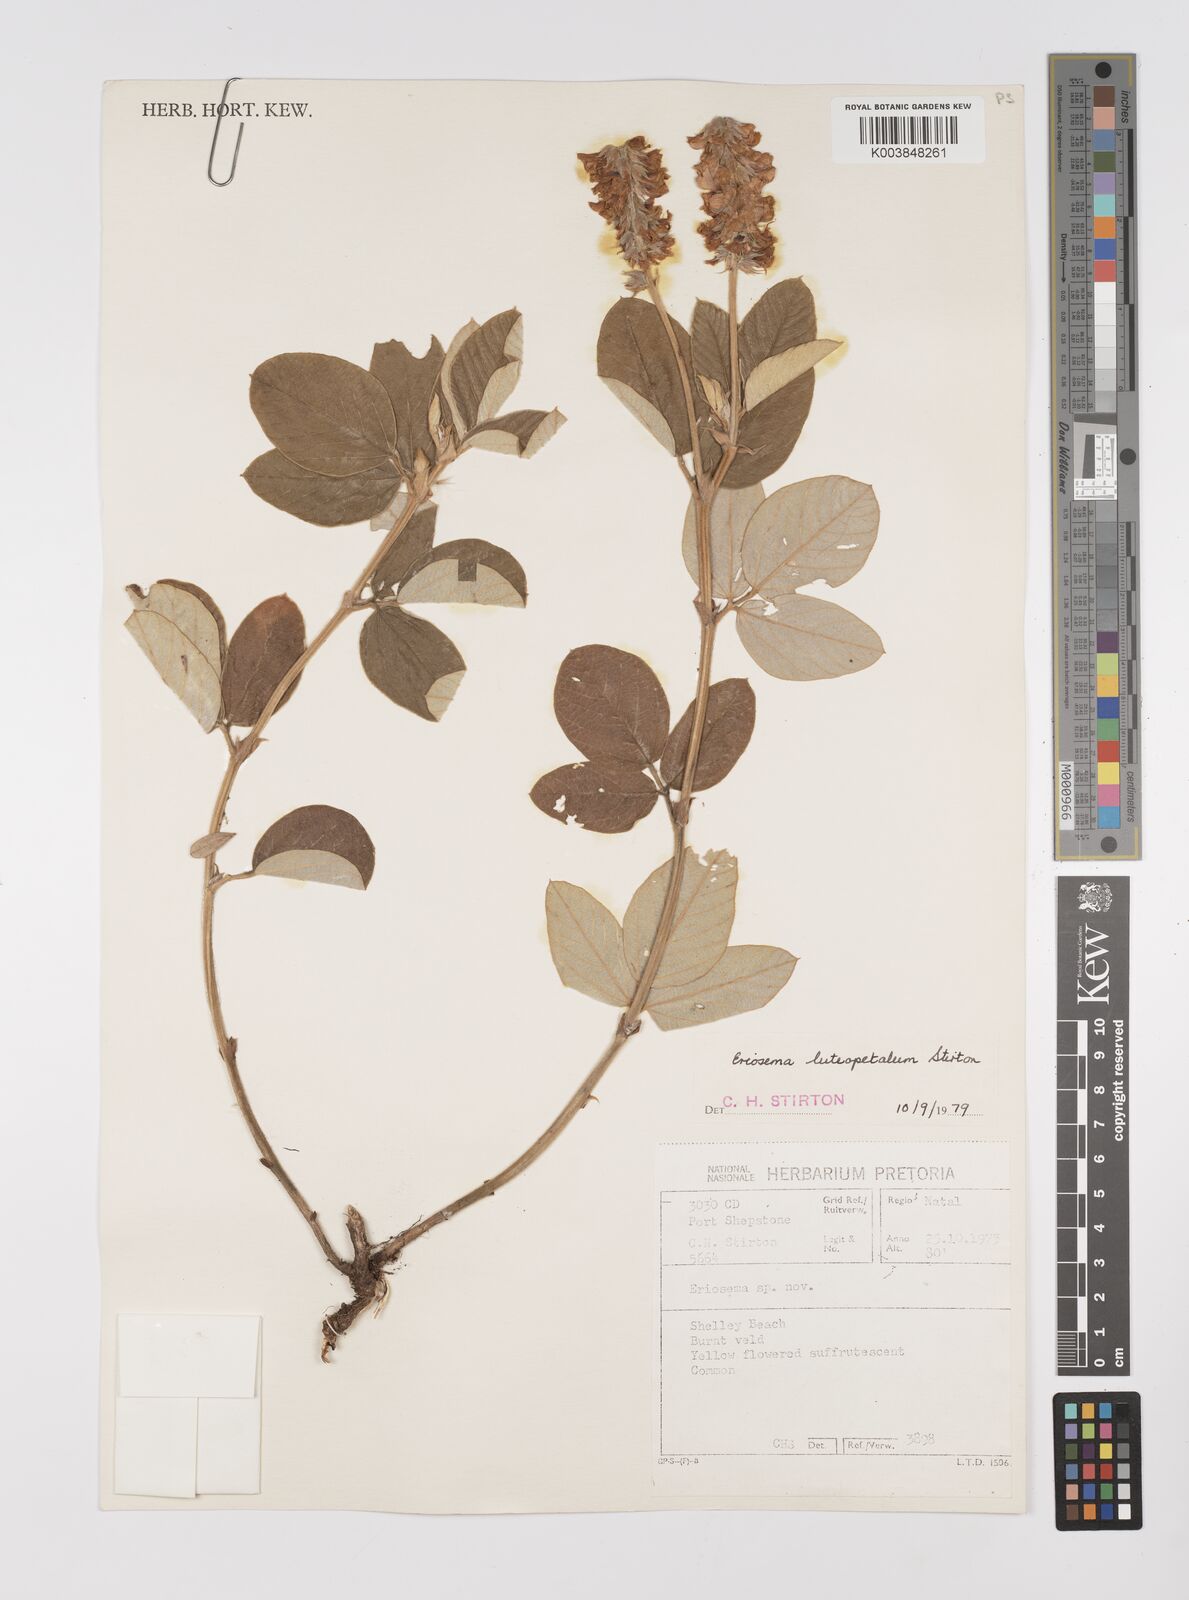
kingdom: Plantae
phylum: Tracheophyta
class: Magnoliopsida
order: Fabales
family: Fabaceae
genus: Eriosema
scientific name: Eriosema luteopetalum
